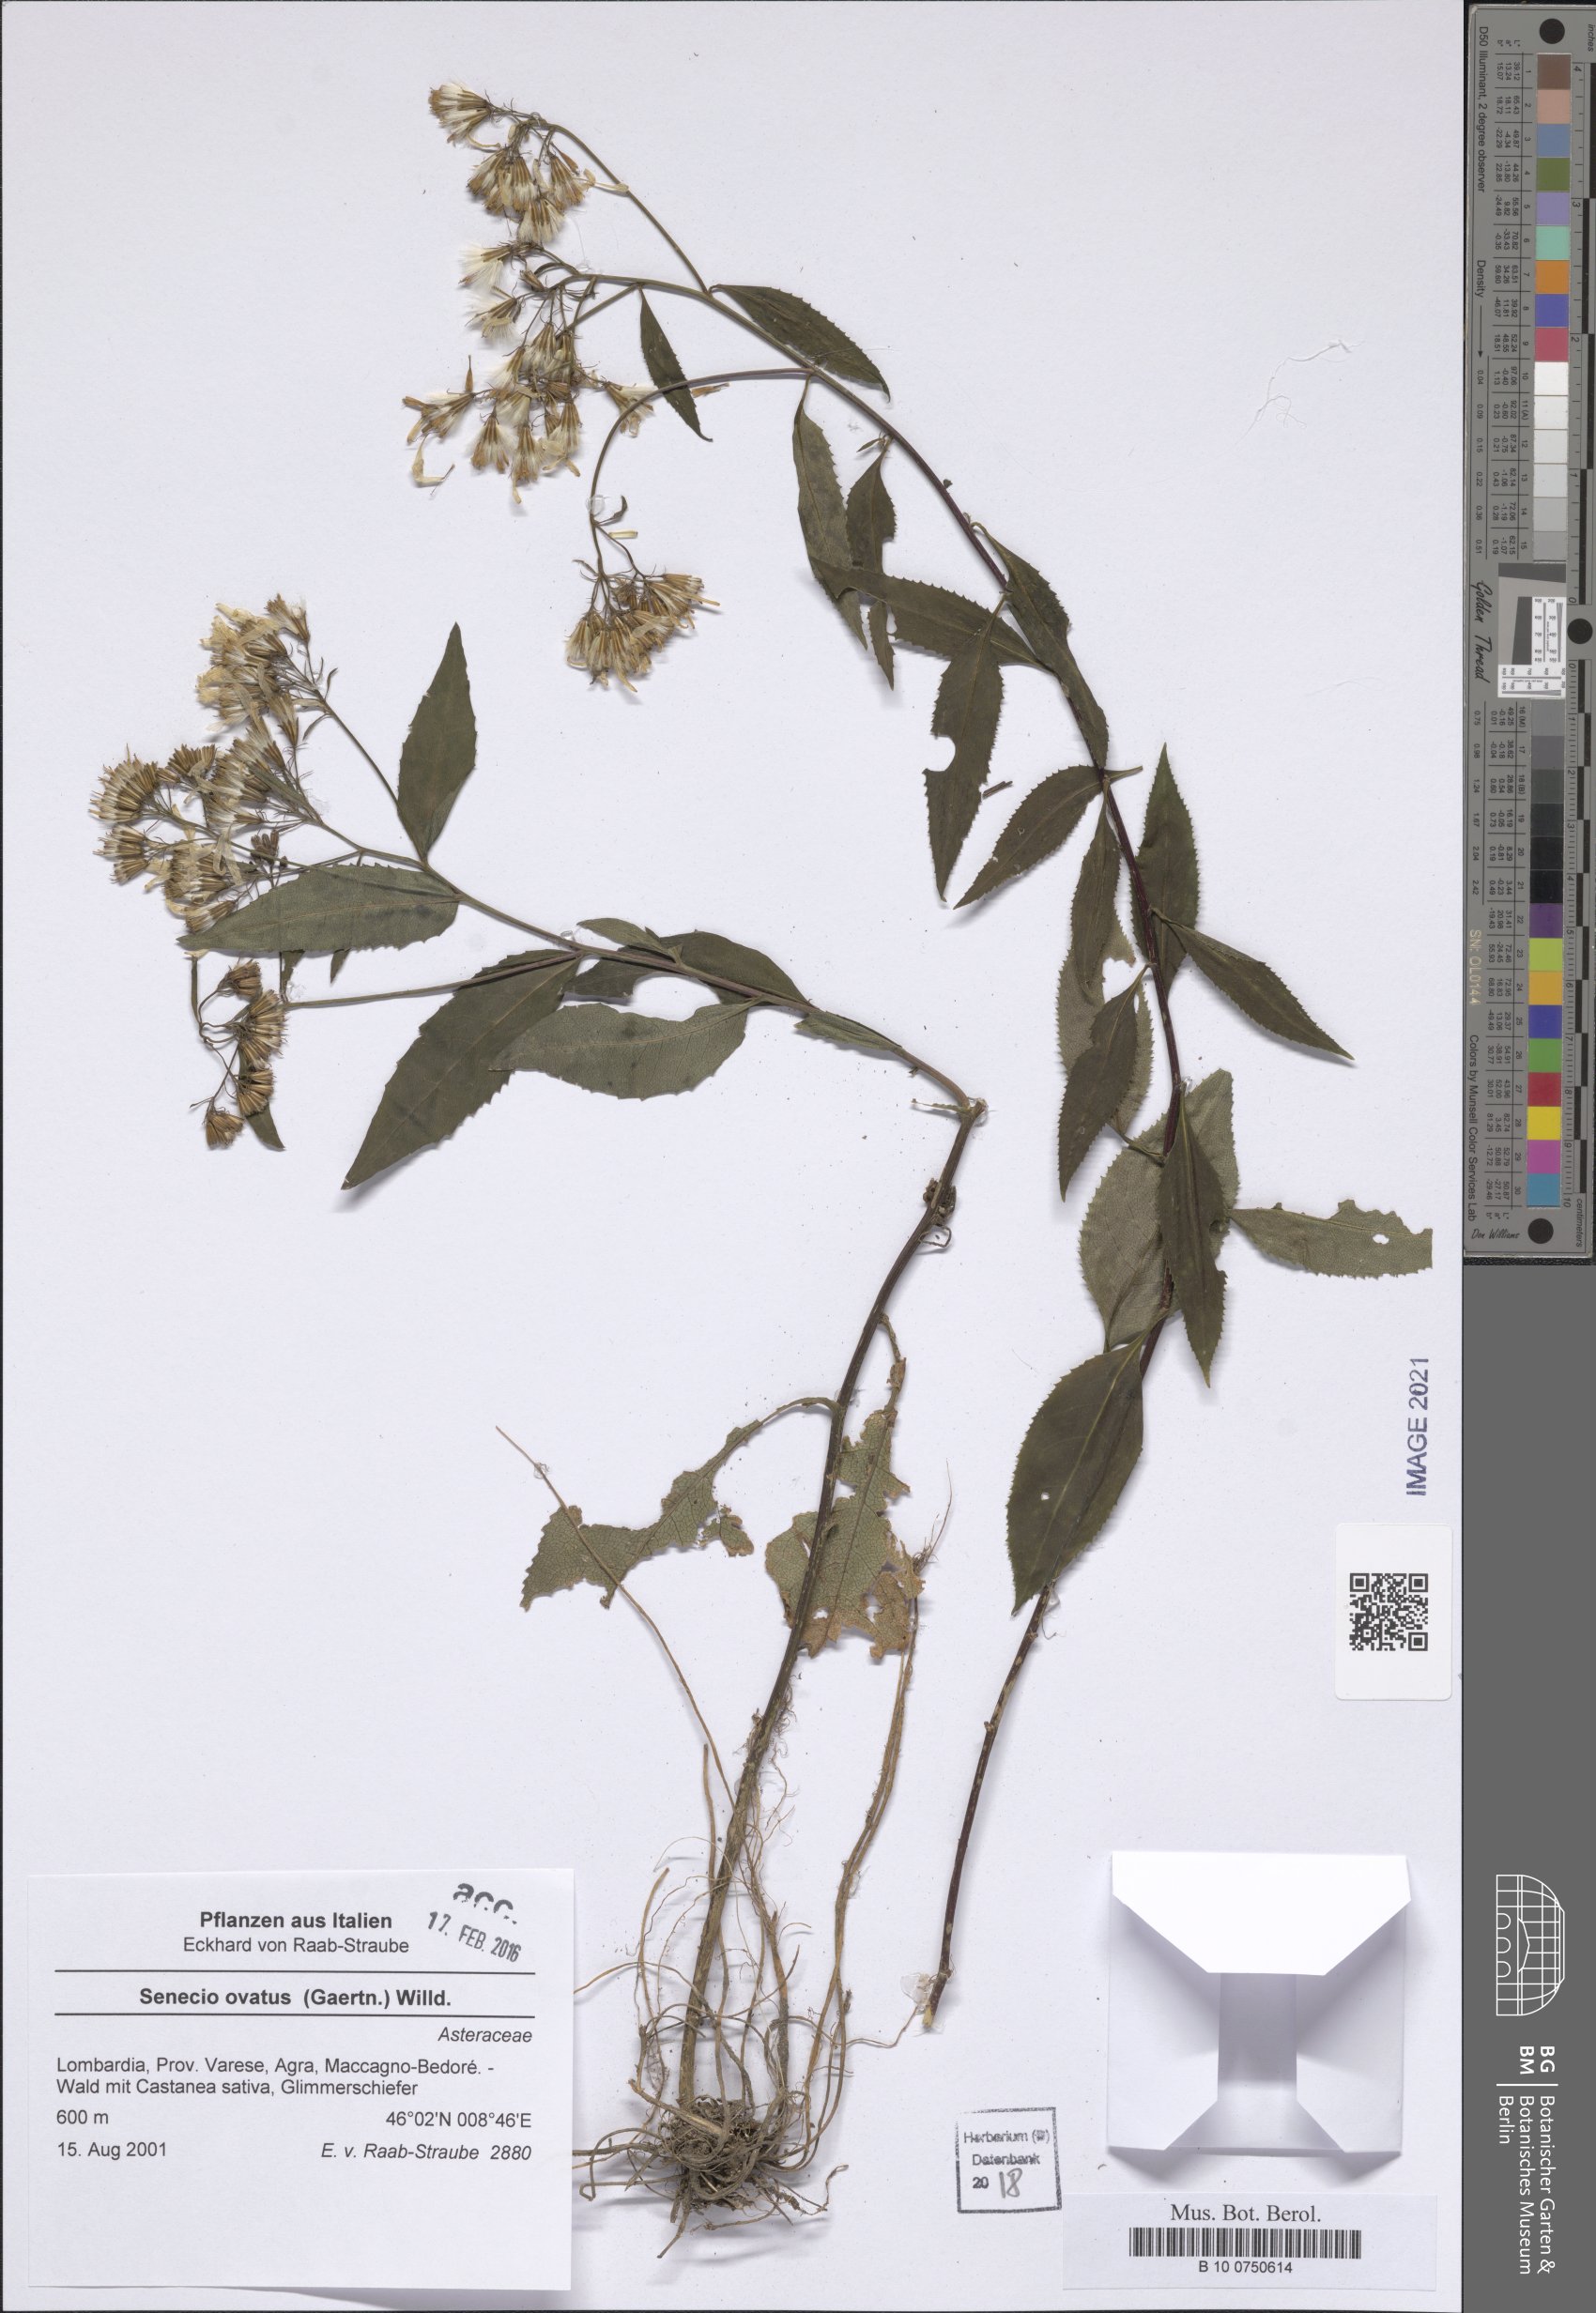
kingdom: Plantae
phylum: Tracheophyta
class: Magnoliopsida
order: Asterales
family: Asteraceae
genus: Senecio
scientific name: Senecio ovatus
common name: Wood ragwort
